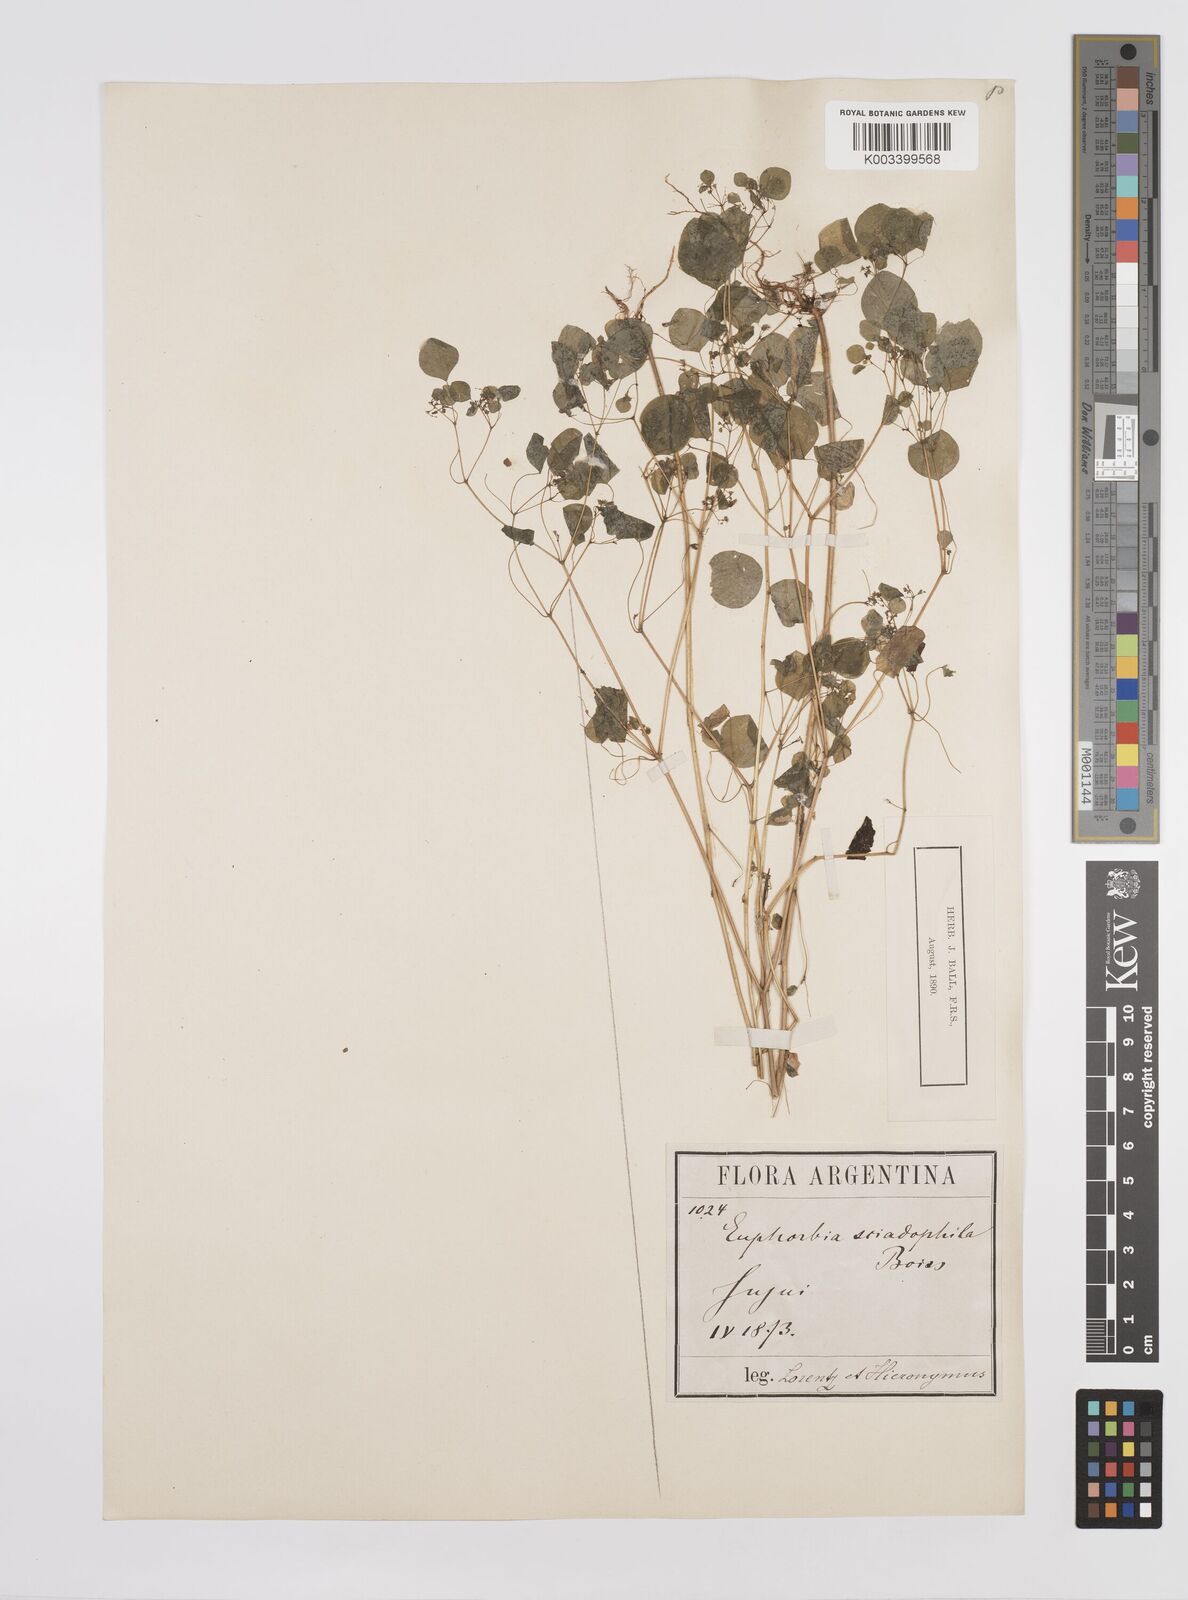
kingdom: Plantae
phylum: Tracheophyta
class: Magnoliopsida
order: Malpighiales
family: Euphorbiaceae
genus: Euphorbia
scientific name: Euphorbia sciadophila
